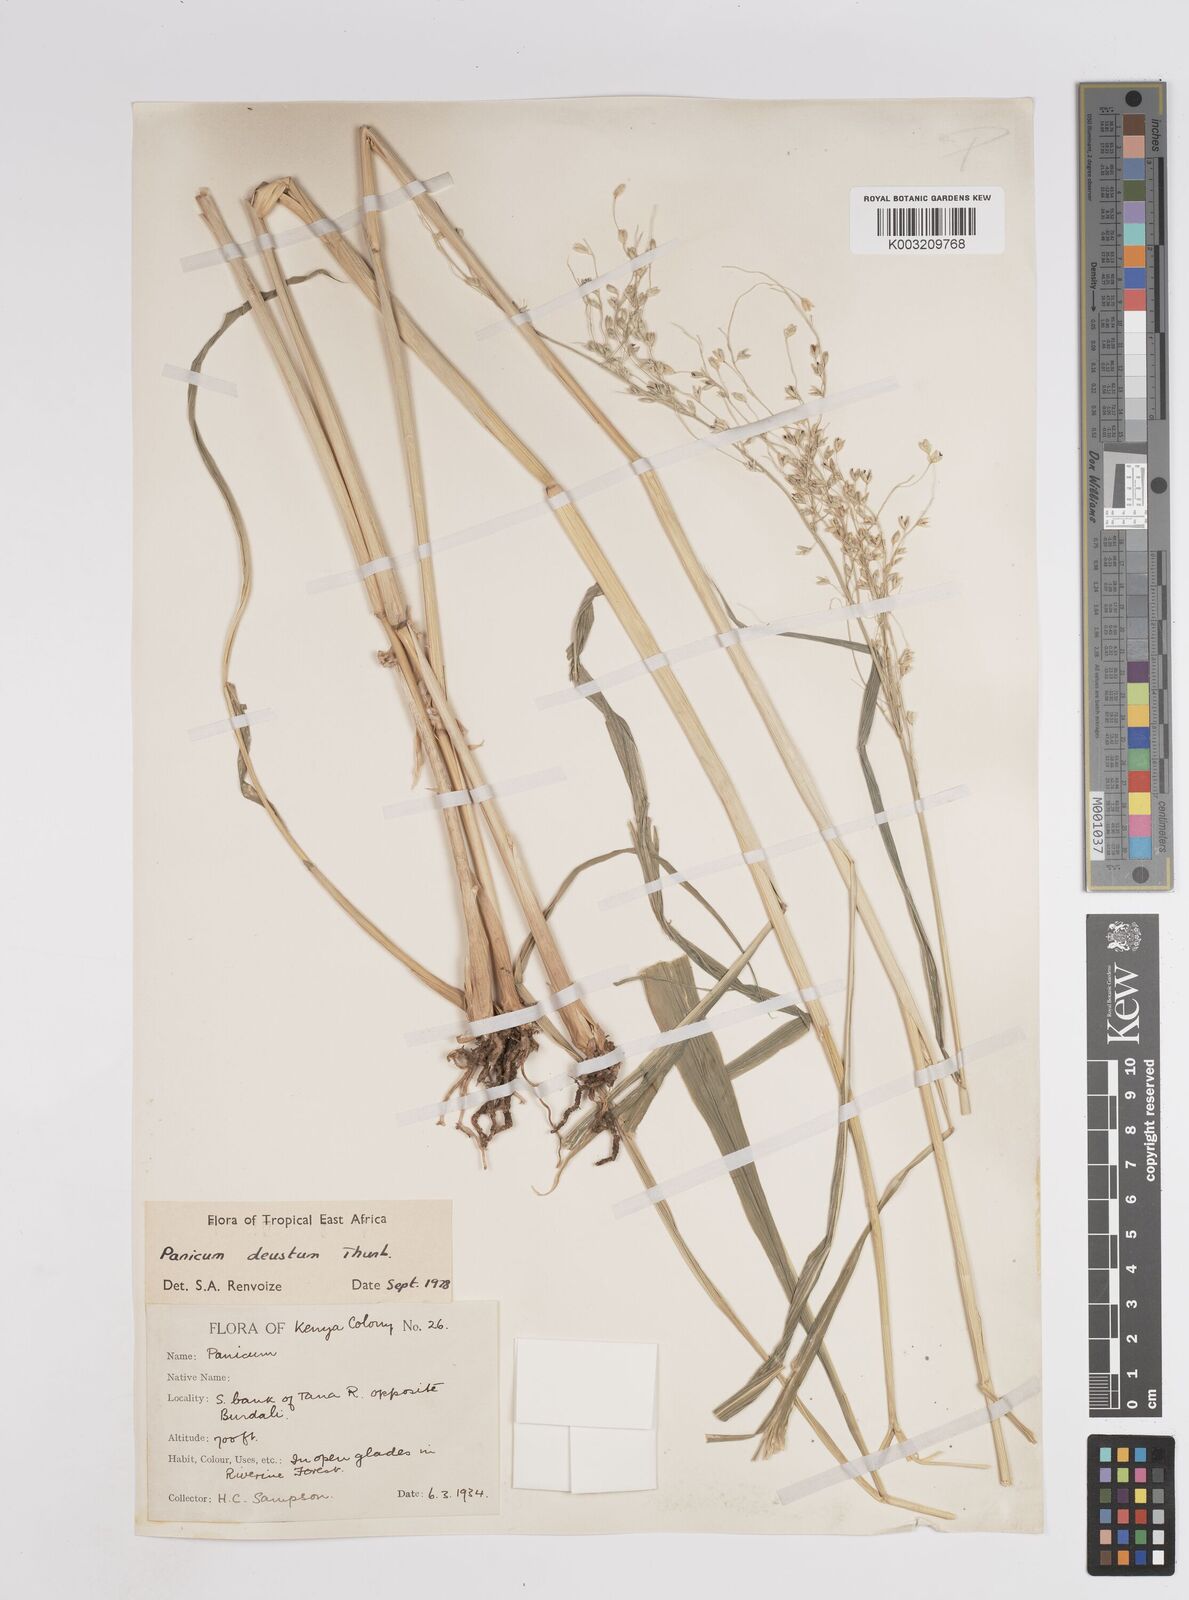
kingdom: Plantae
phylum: Tracheophyta
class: Liliopsida
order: Poales
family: Poaceae
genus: Panicum
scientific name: Panicum
